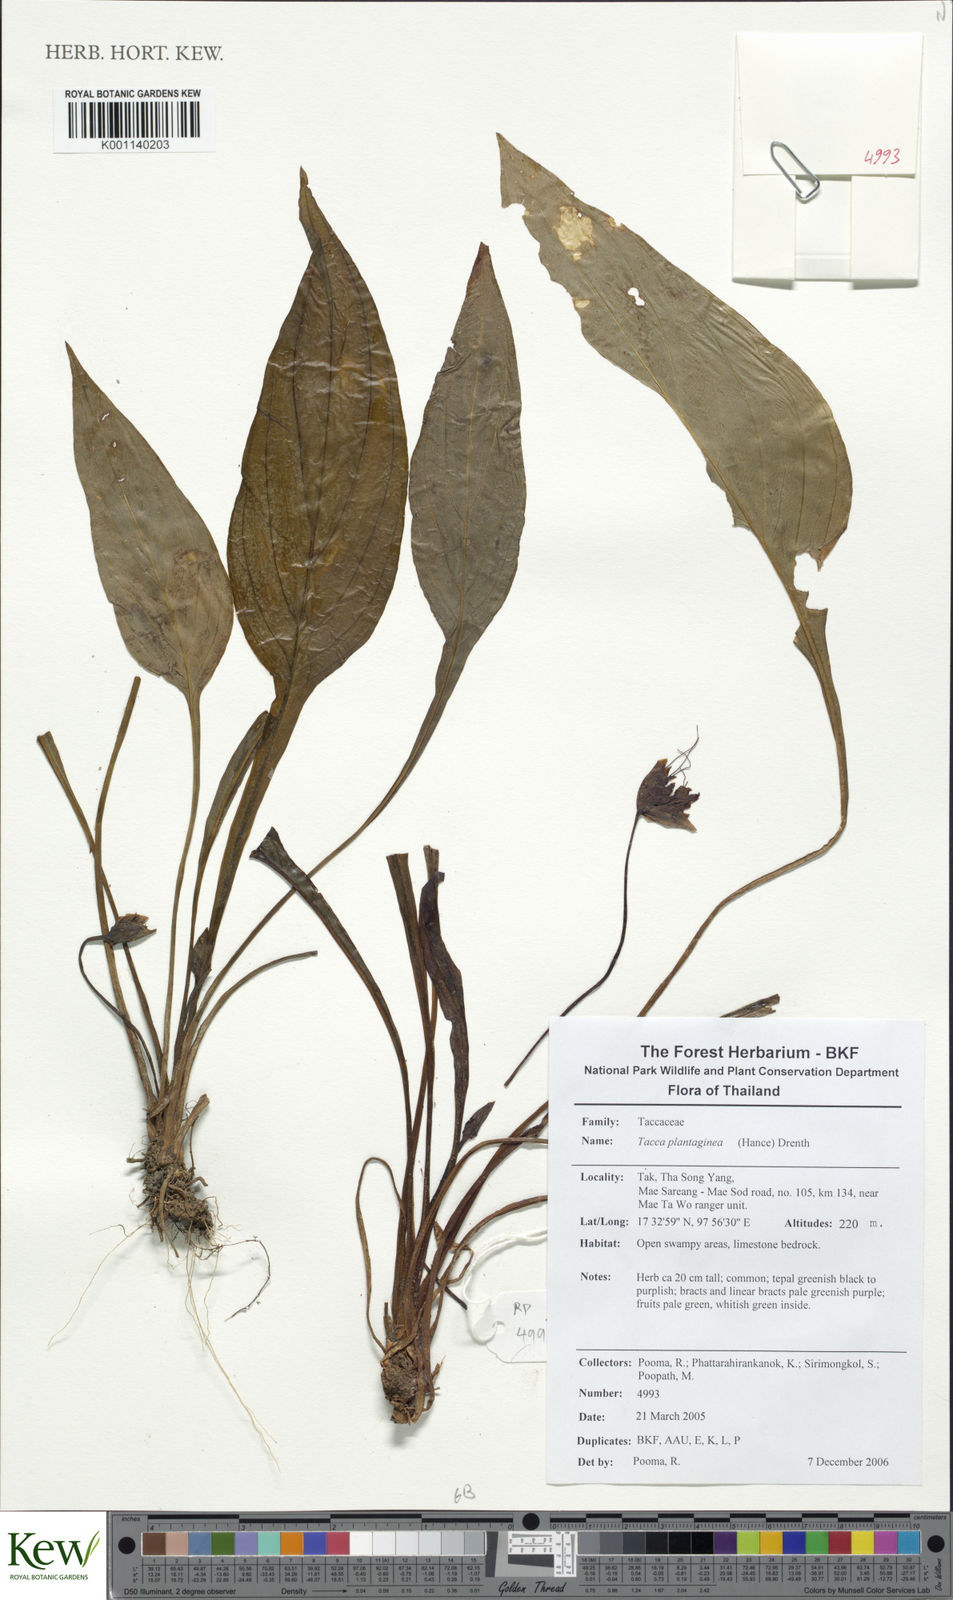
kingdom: Plantae
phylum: Tracheophyta
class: Liliopsida
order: Dioscoreales
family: Dioscoreaceae
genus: Tacca
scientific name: Tacca plantaginea
